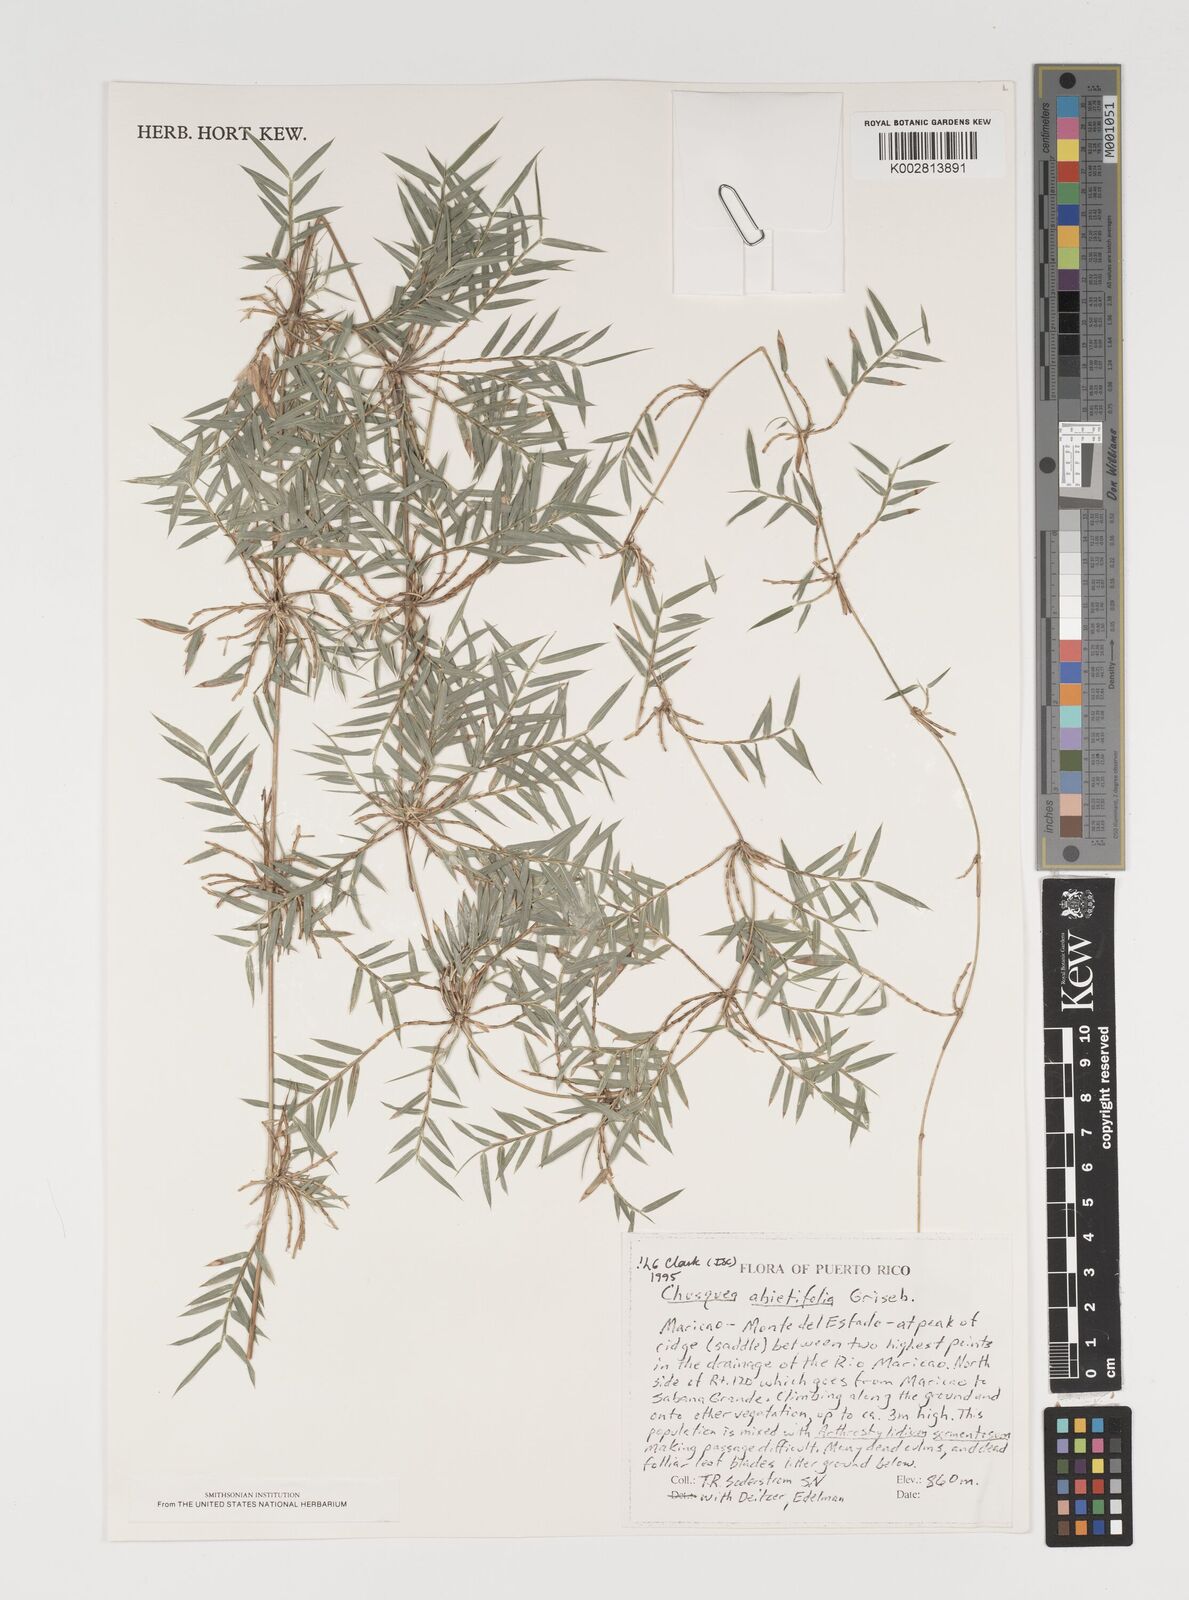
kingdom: Plantae
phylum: Tracheophyta
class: Liliopsida
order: Poales
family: Poaceae
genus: Chusquea
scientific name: Chusquea abietifolia
